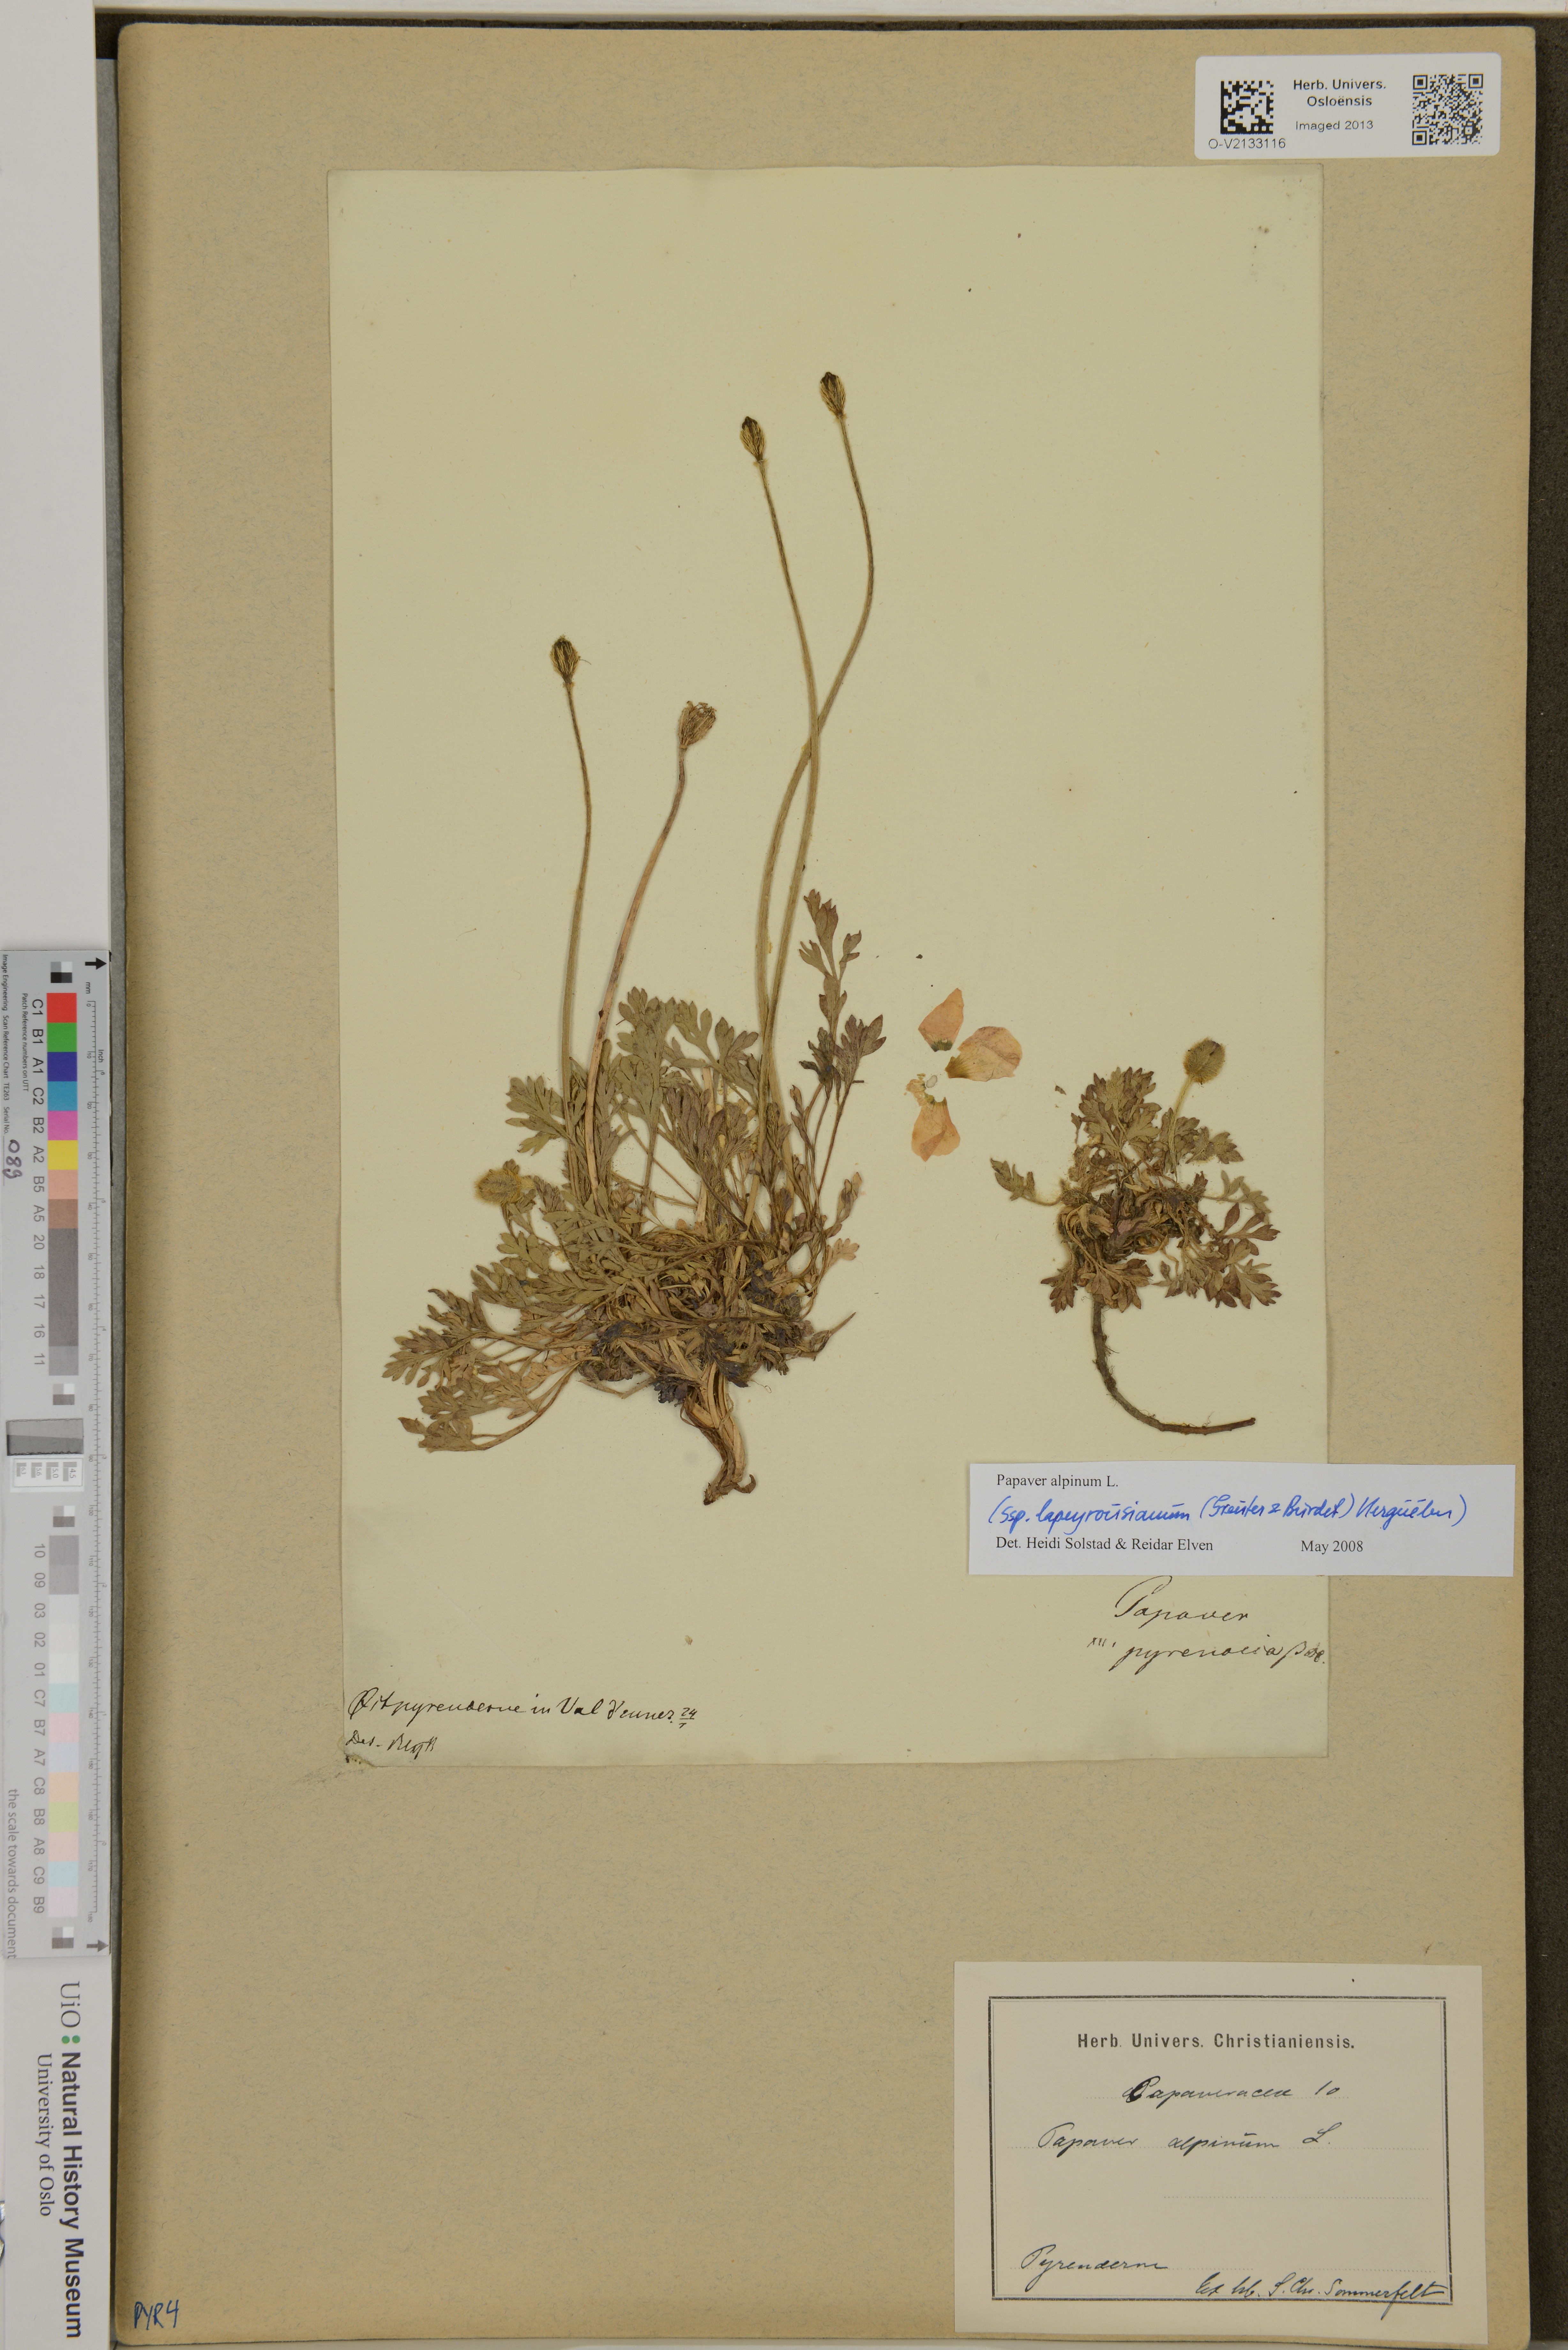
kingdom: Plantae
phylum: Tracheophyta
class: Magnoliopsida
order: Ranunculales
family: Papaveraceae
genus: Papaver
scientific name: Papaver alpinum
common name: Austrian poppy
